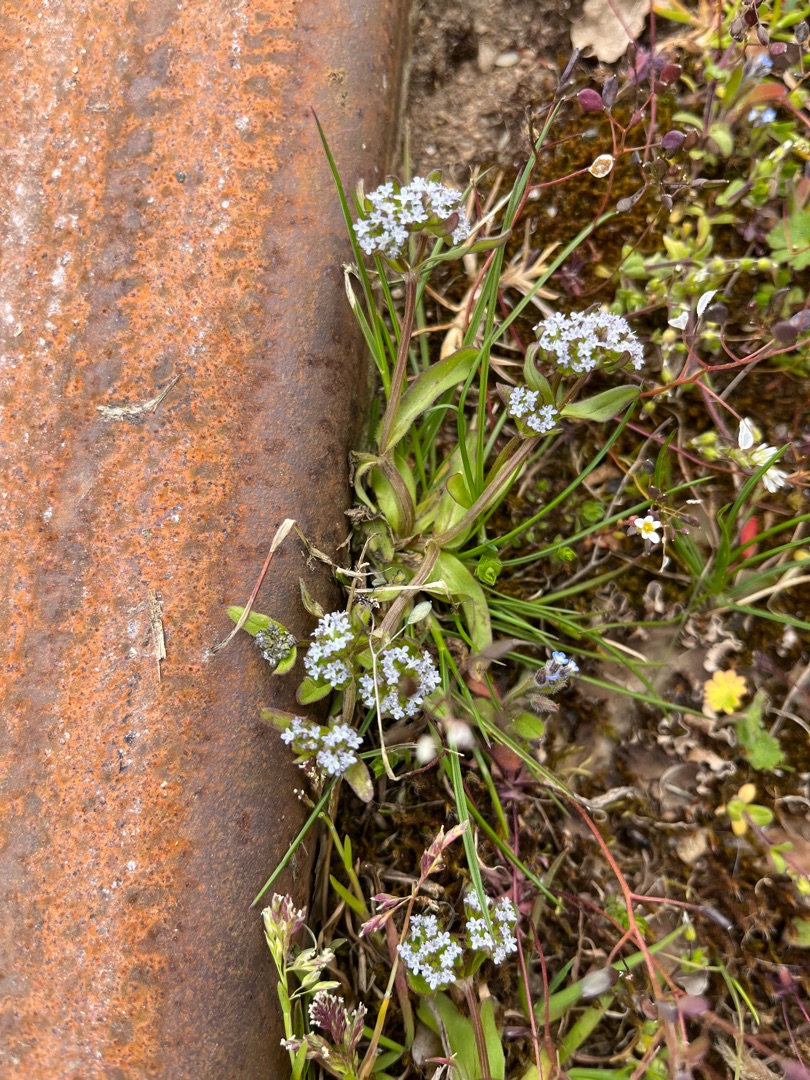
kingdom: Plantae
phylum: Tracheophyta
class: Magnoliopsida
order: Dipsacales
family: Caprifoliaceae
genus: Valerianella
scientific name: Valerianella locusta
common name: Tandfri vårsalat
